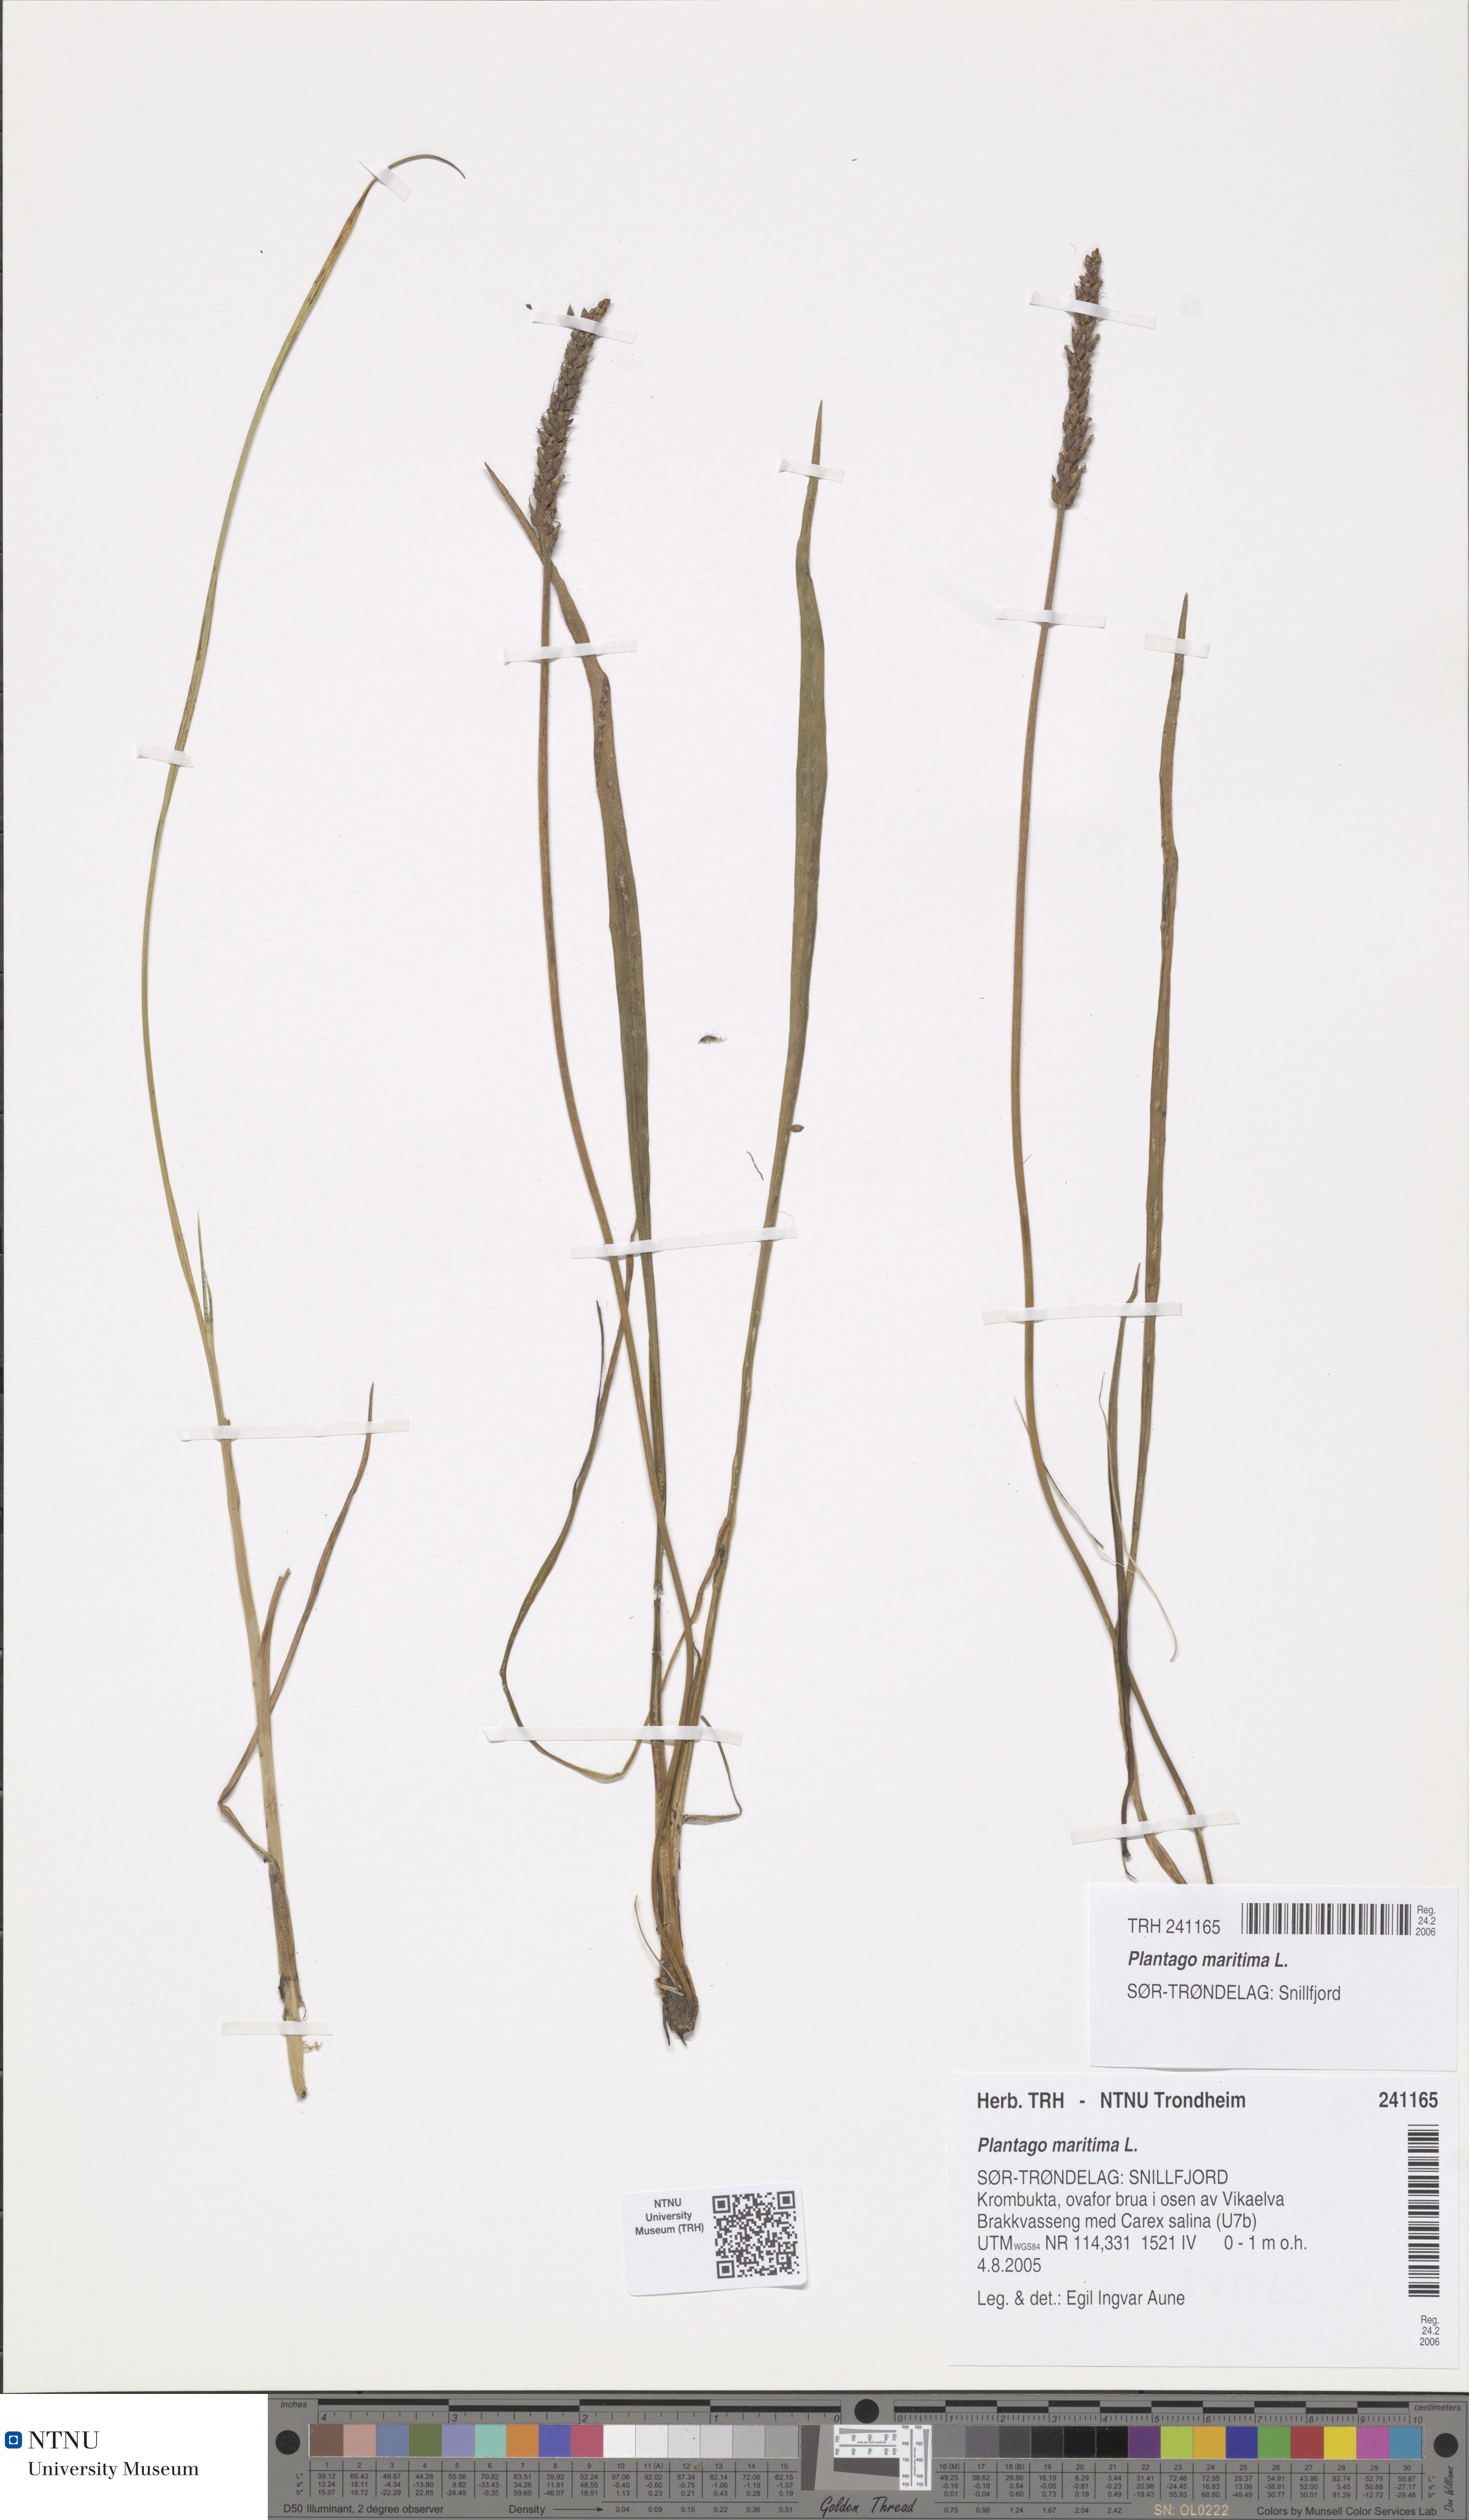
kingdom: Plantae
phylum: Tracheophyta
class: Magnoliopsida
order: Lamiales
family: Plantaginaceae
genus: Plantago
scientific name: Plantago maritima
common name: Sea plantain
